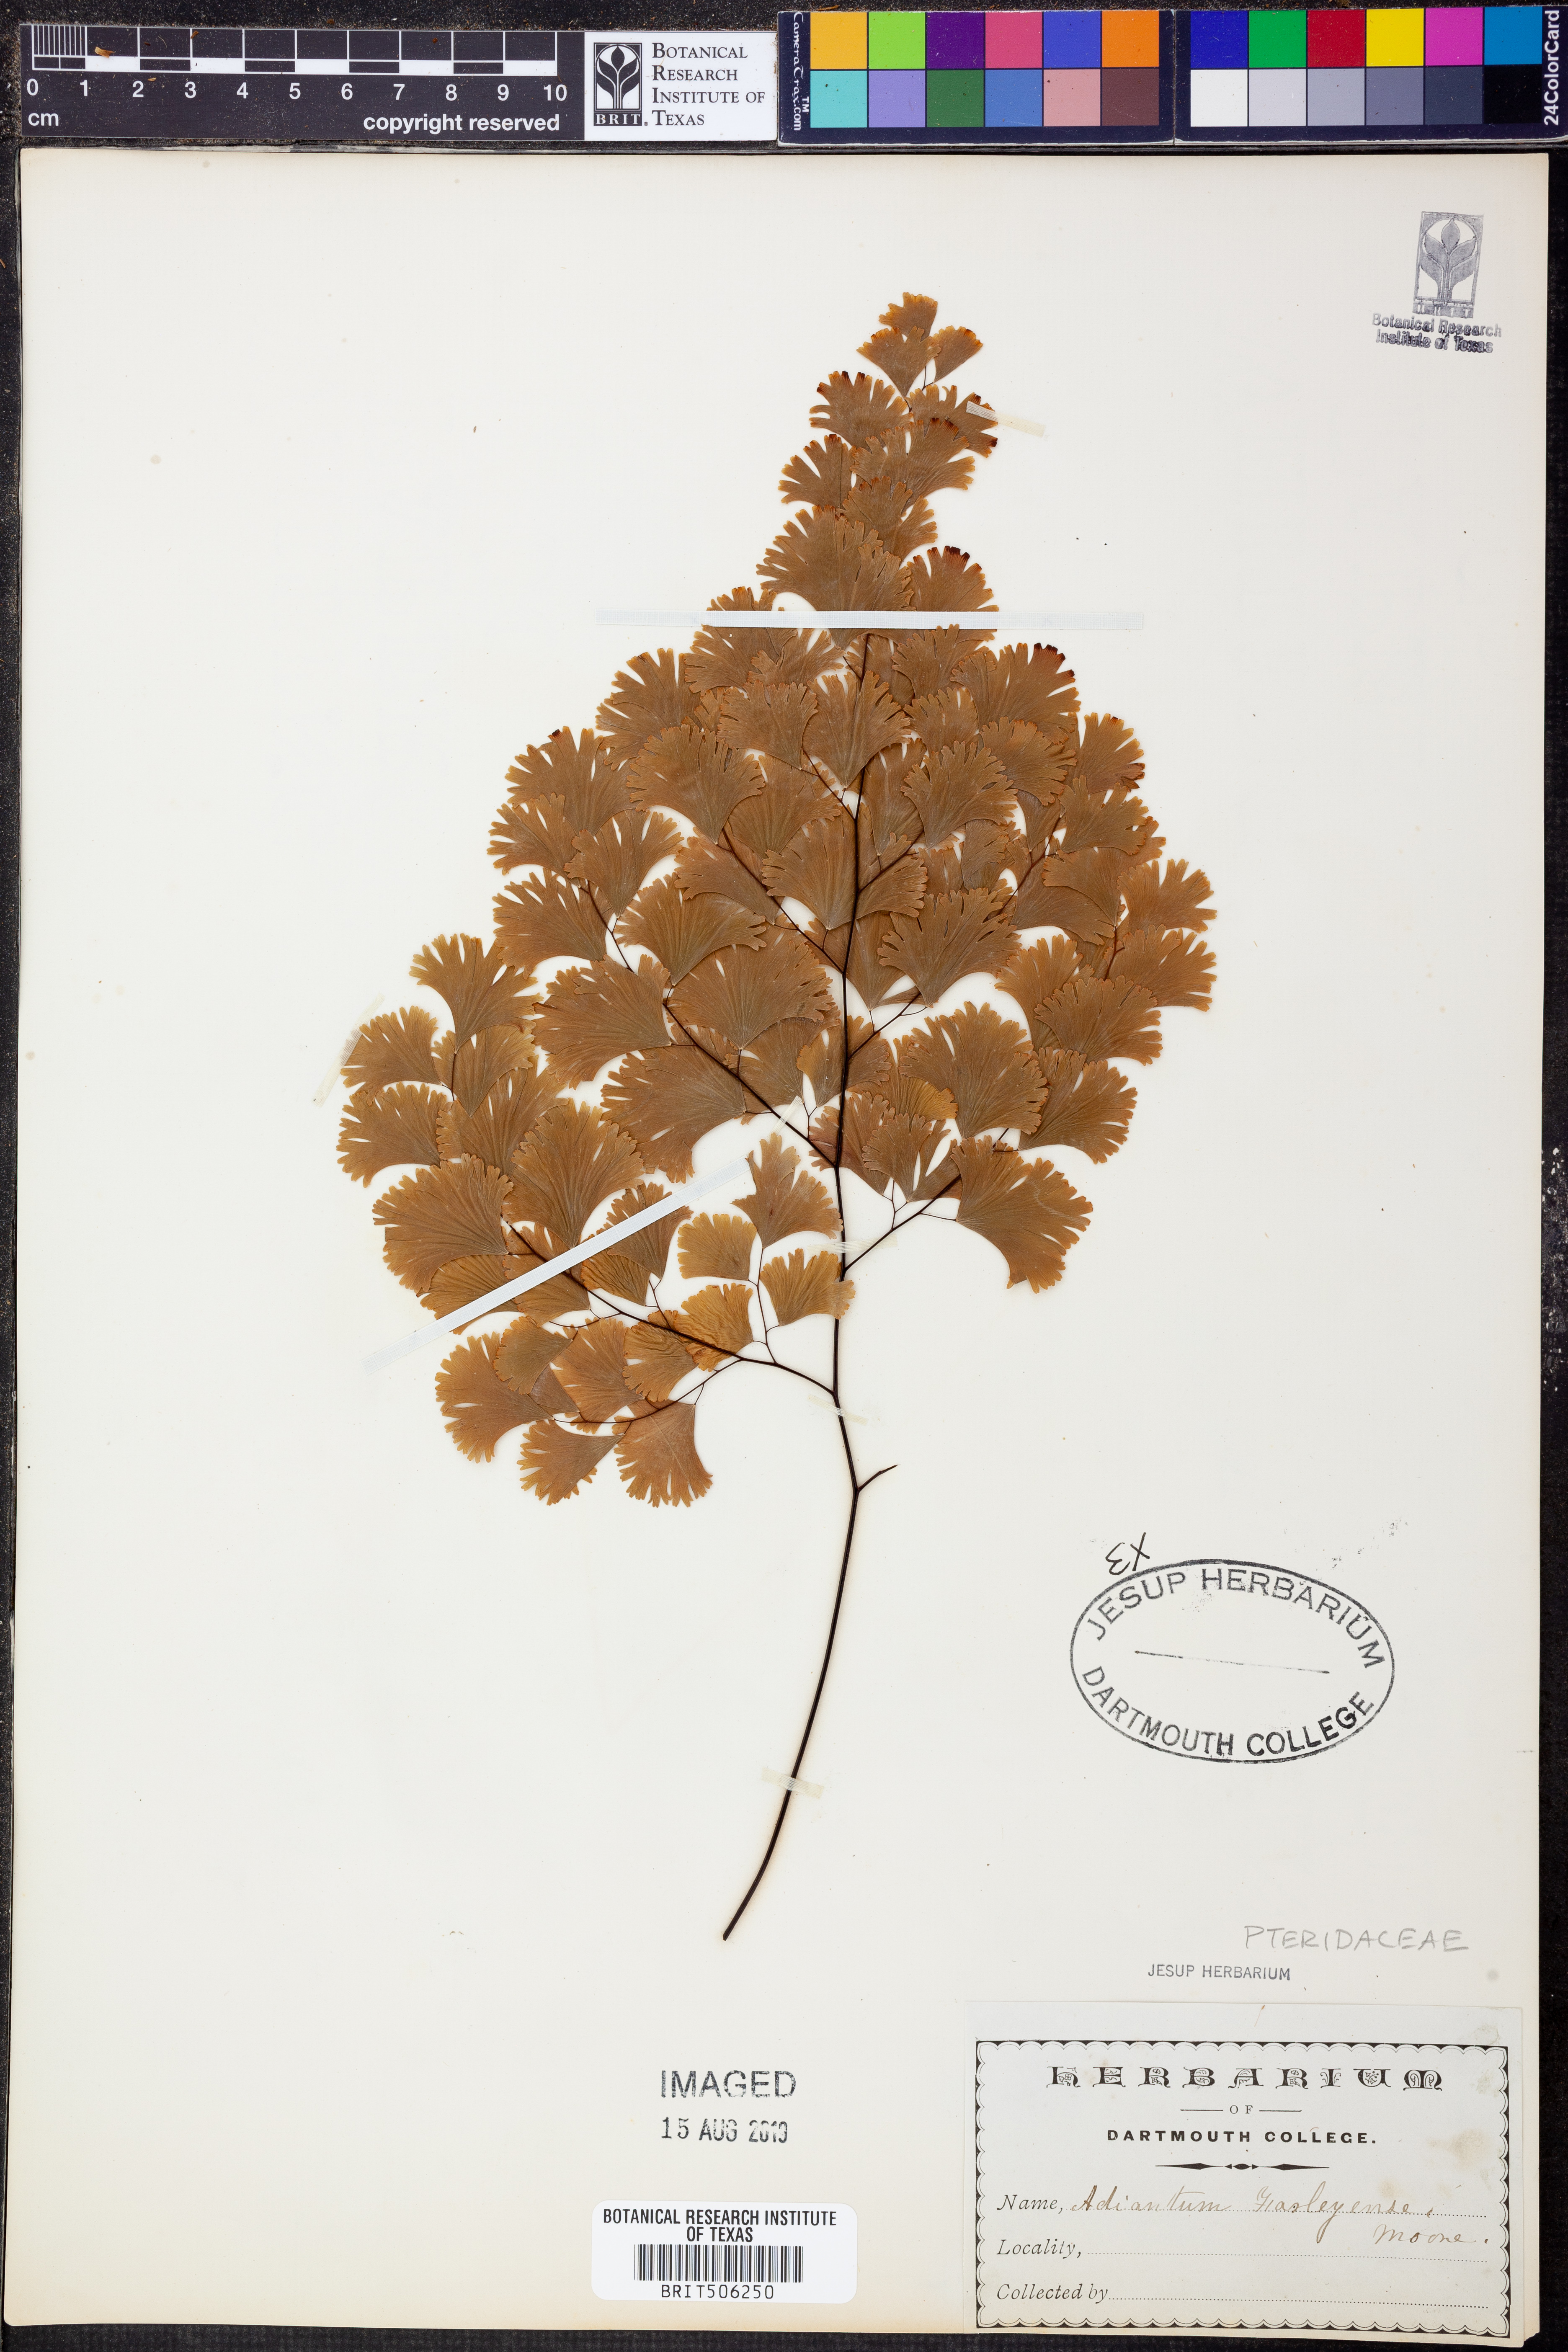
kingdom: Plantae
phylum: Tracheophyta
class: Polypodiopsida
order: Polypodiales
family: Pteridaceae
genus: Adiantum
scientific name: Adiantum tenerum
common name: Fan maidenhair
